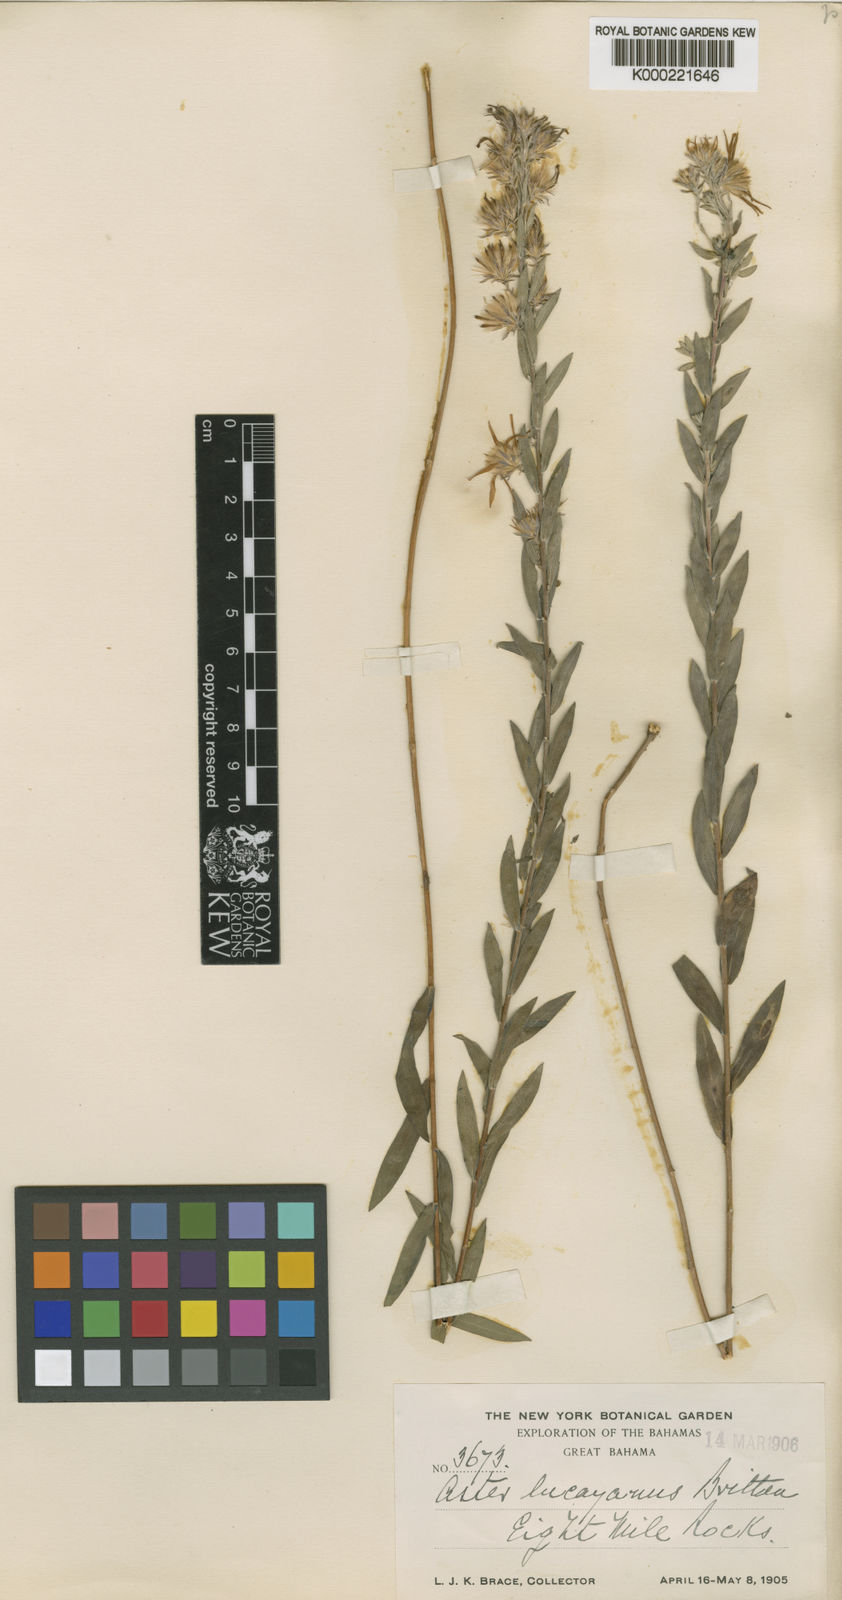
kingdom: Plantae
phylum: Tracheophyta
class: Magnoliopsida
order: Asterales
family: Asteraceae
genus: Symphyotrichum
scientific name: Symphyotrichum lucayanum
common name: Pineland aster
